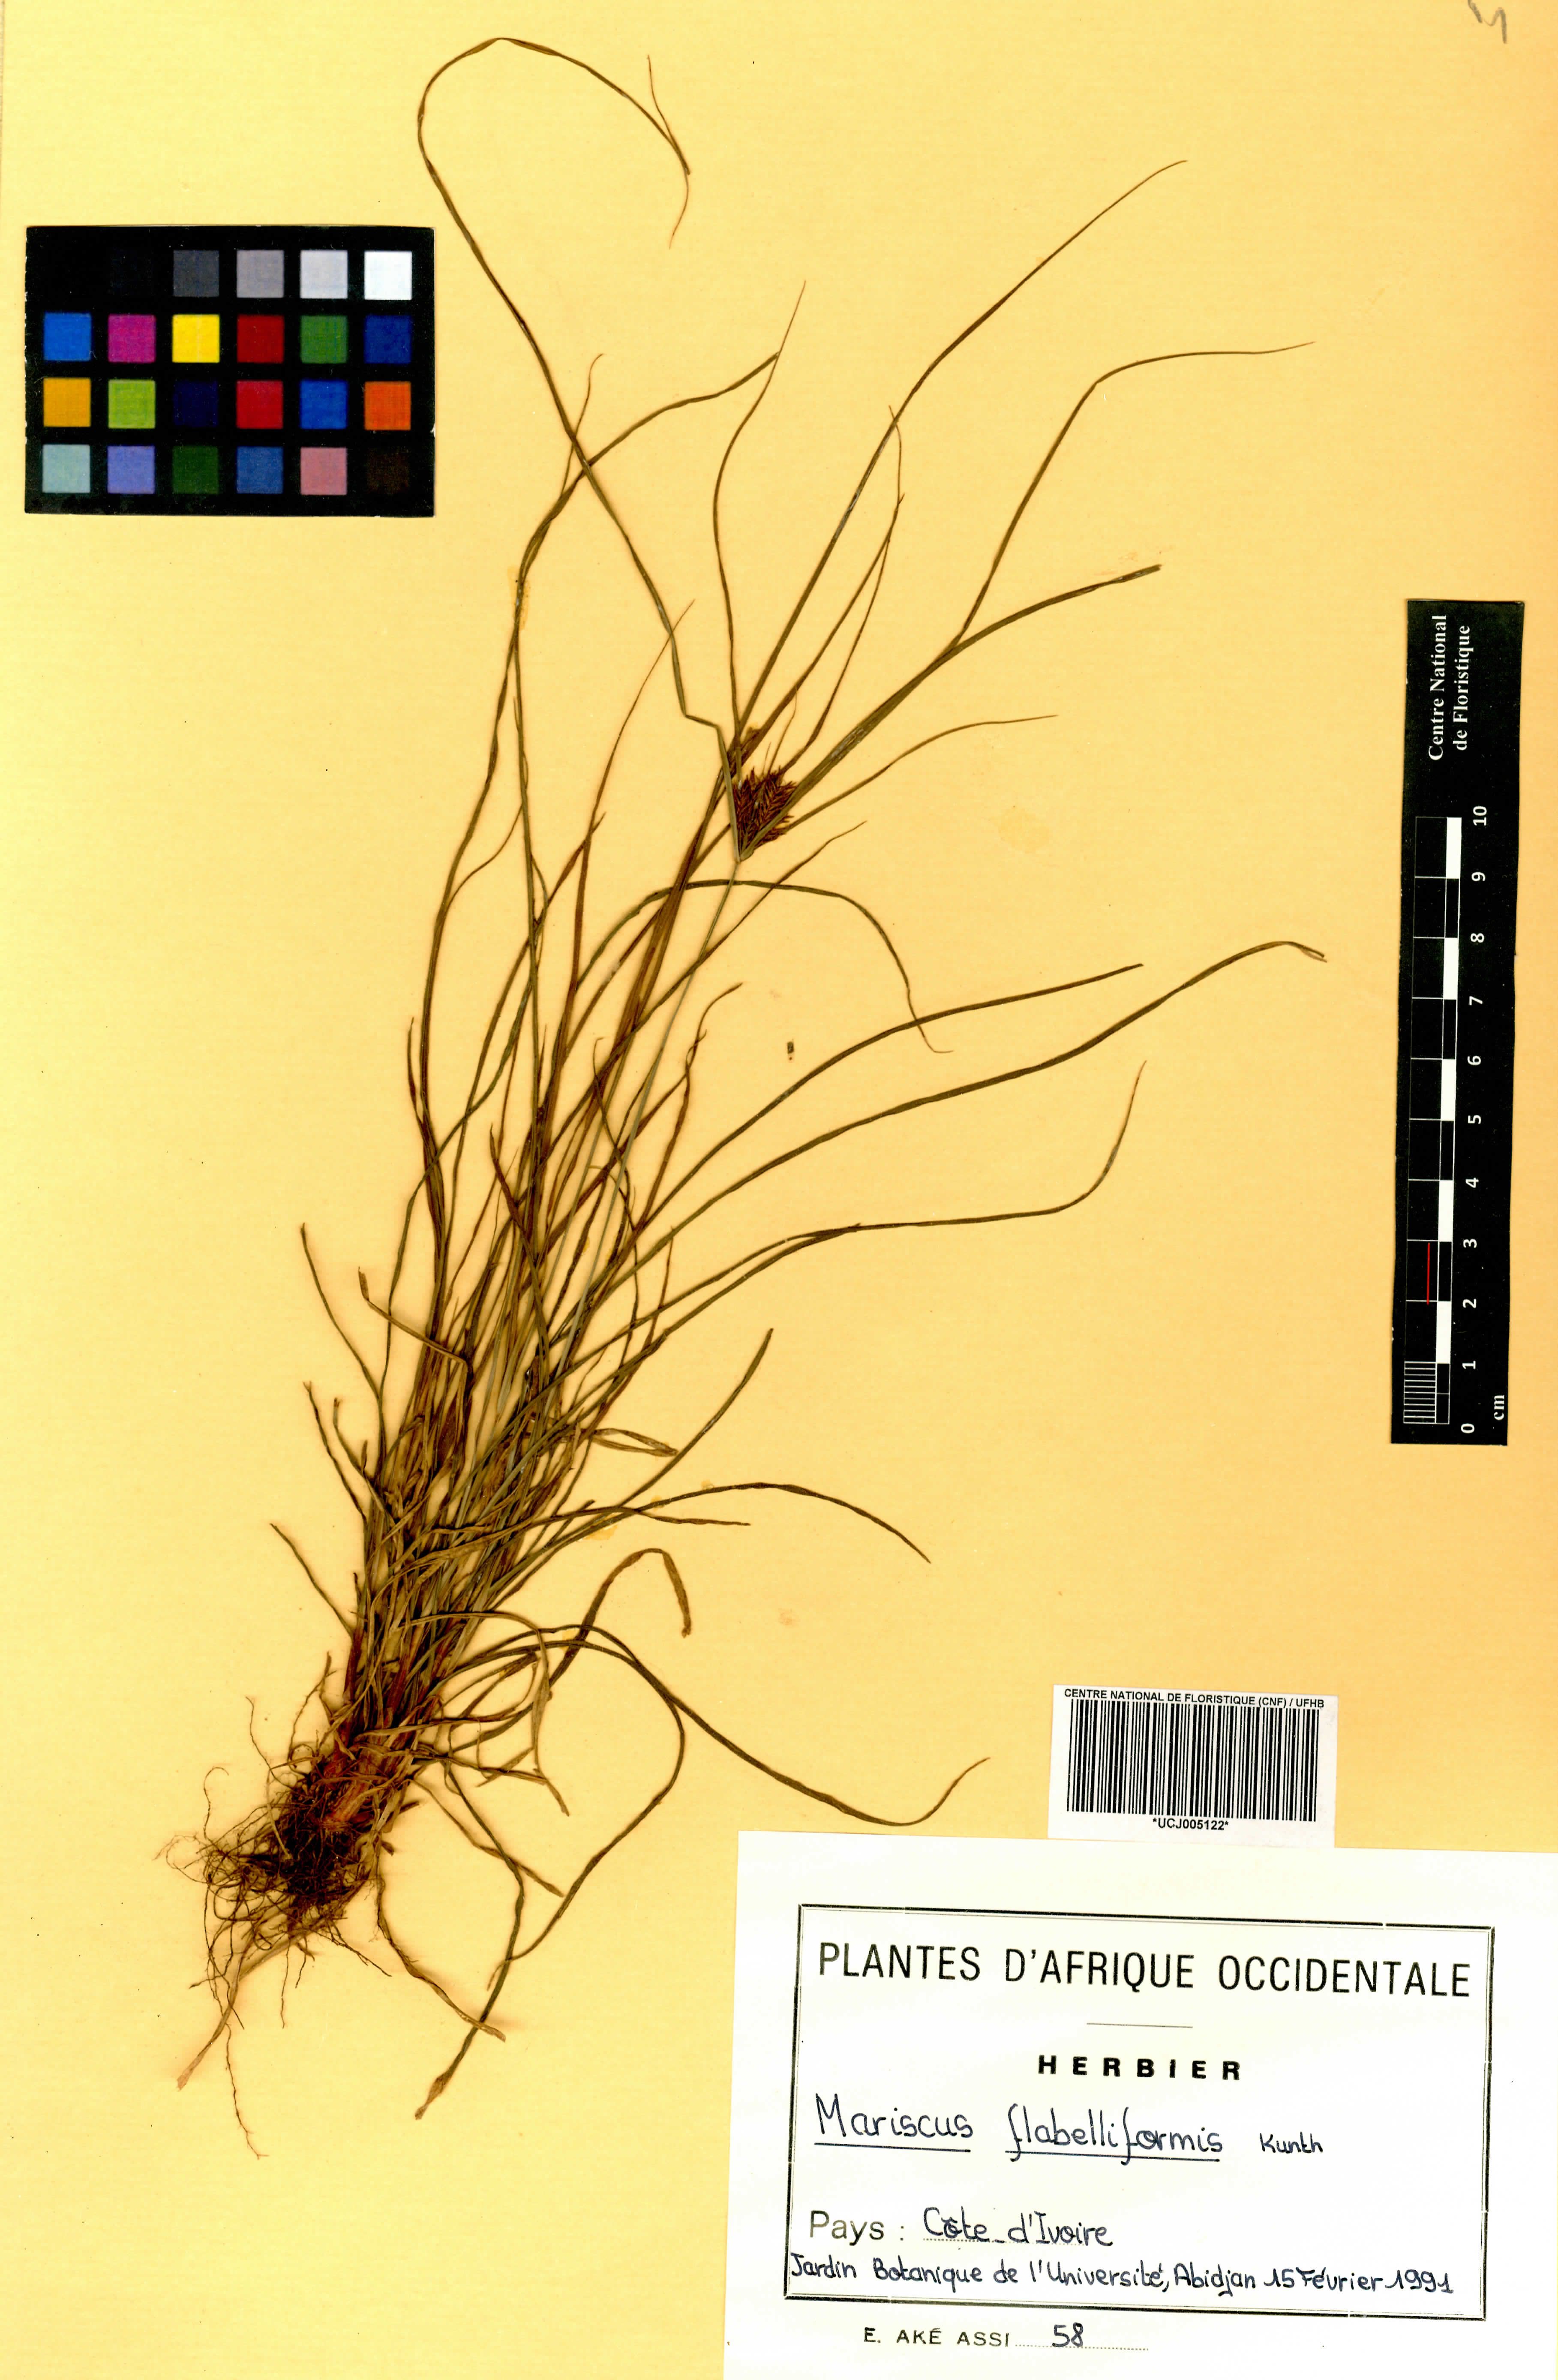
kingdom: Plantae
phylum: Tracheophyta
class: Liliopsida
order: Poales
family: Cyperaceae
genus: Cyperus
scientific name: Cyperus tenuis
